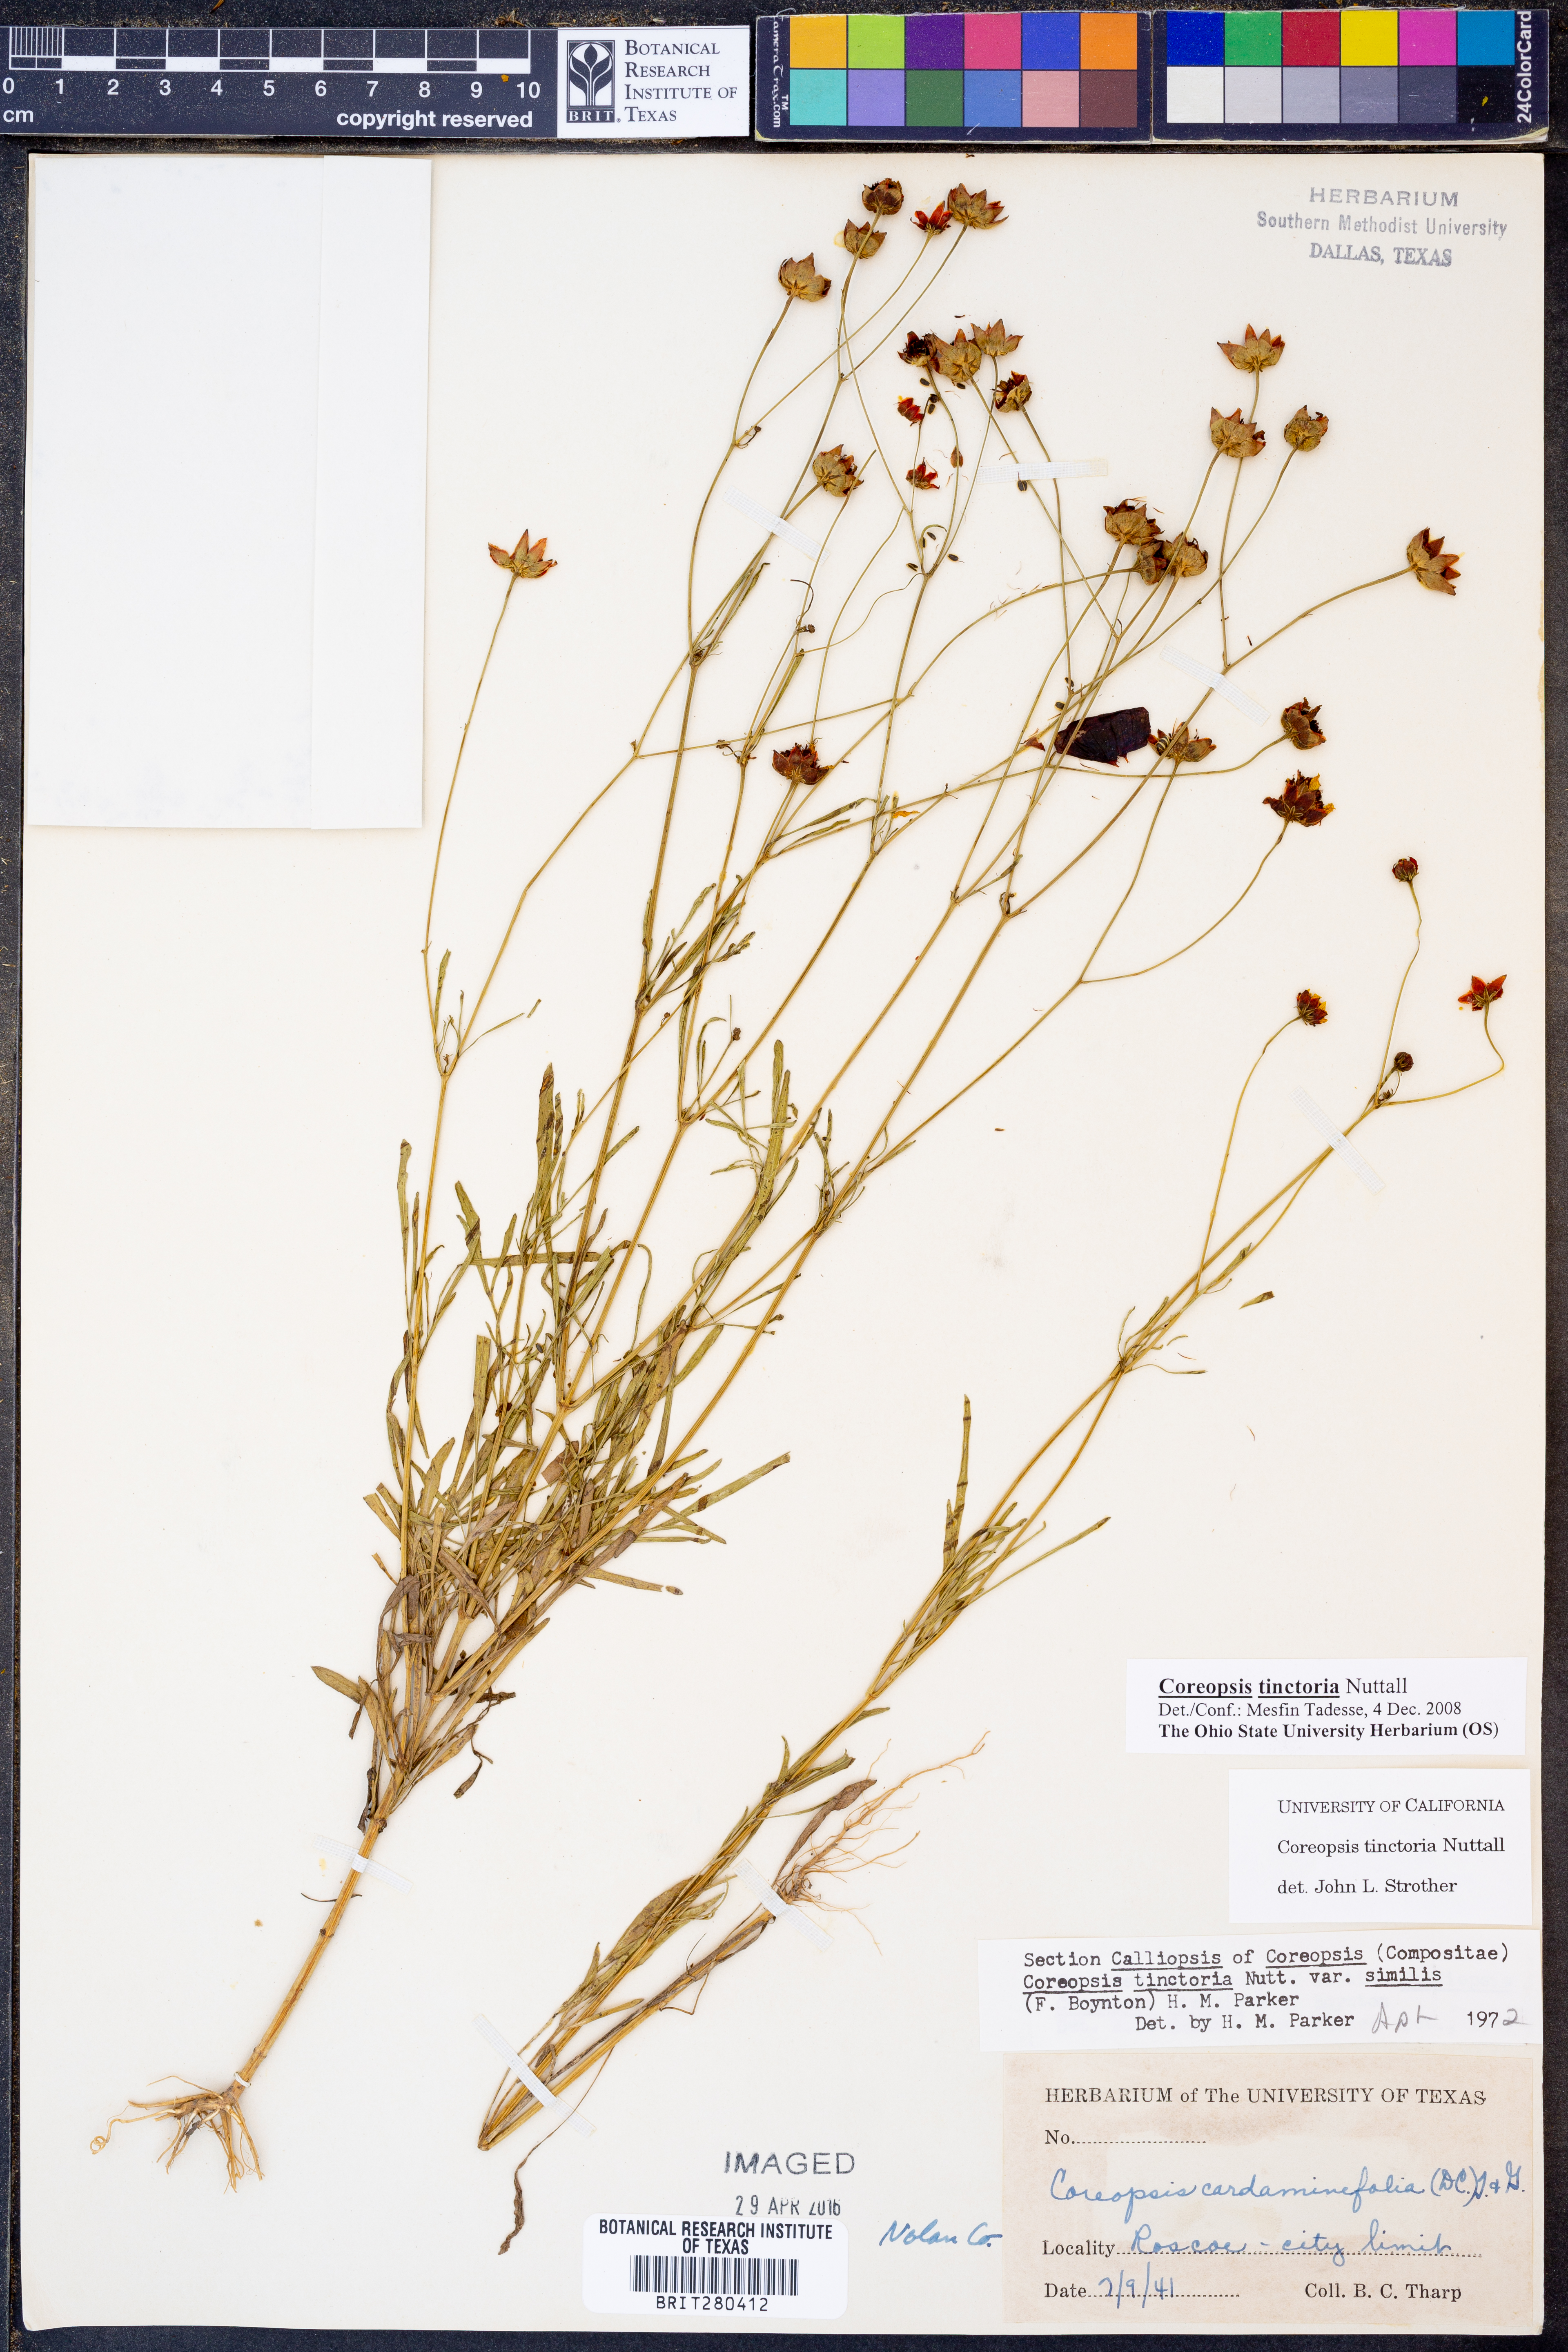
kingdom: Plantae
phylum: Tracheophyta
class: Magnoliopsida
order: Asterales
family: Asteraceae
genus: Coreopsis
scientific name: Coreopsis tinctoria
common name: Garden tickseed
